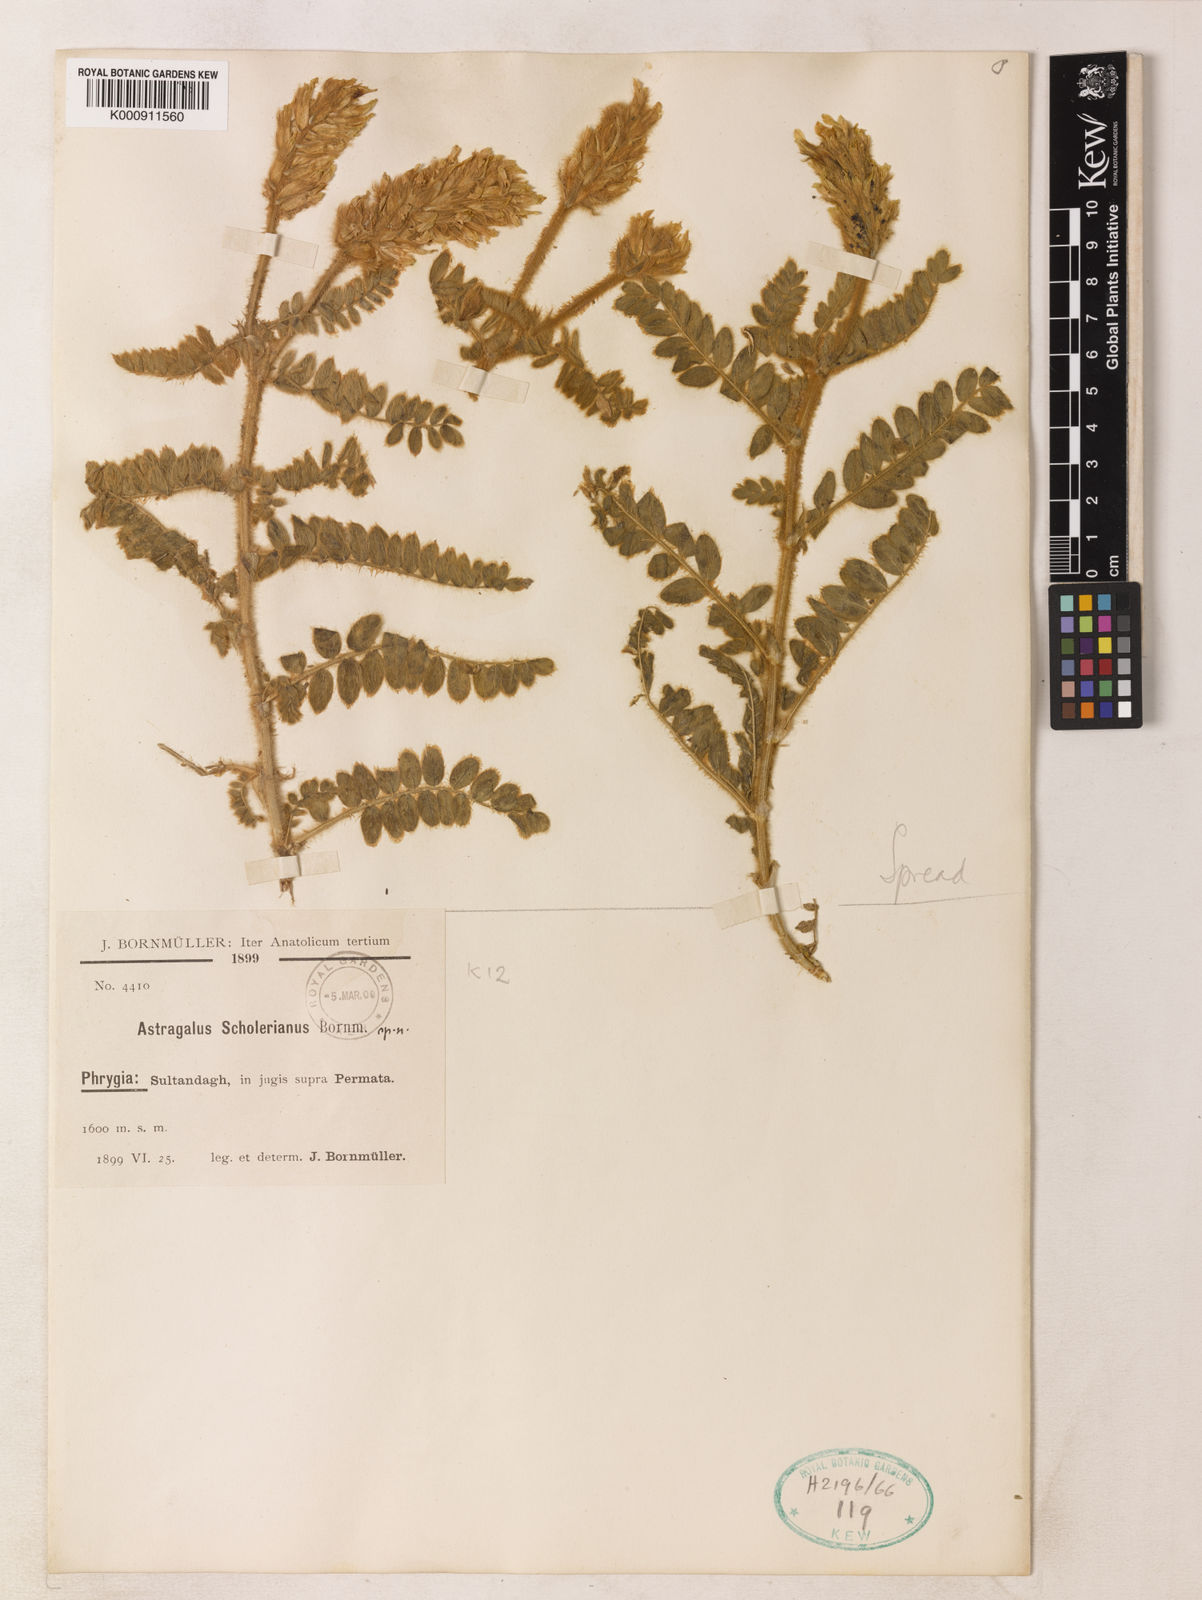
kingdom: Plantae
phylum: Tracheophyta
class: Magnoliopsida
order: Fabales
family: Fabaceae
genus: Astragalus
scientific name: Astragalus scholerianus
